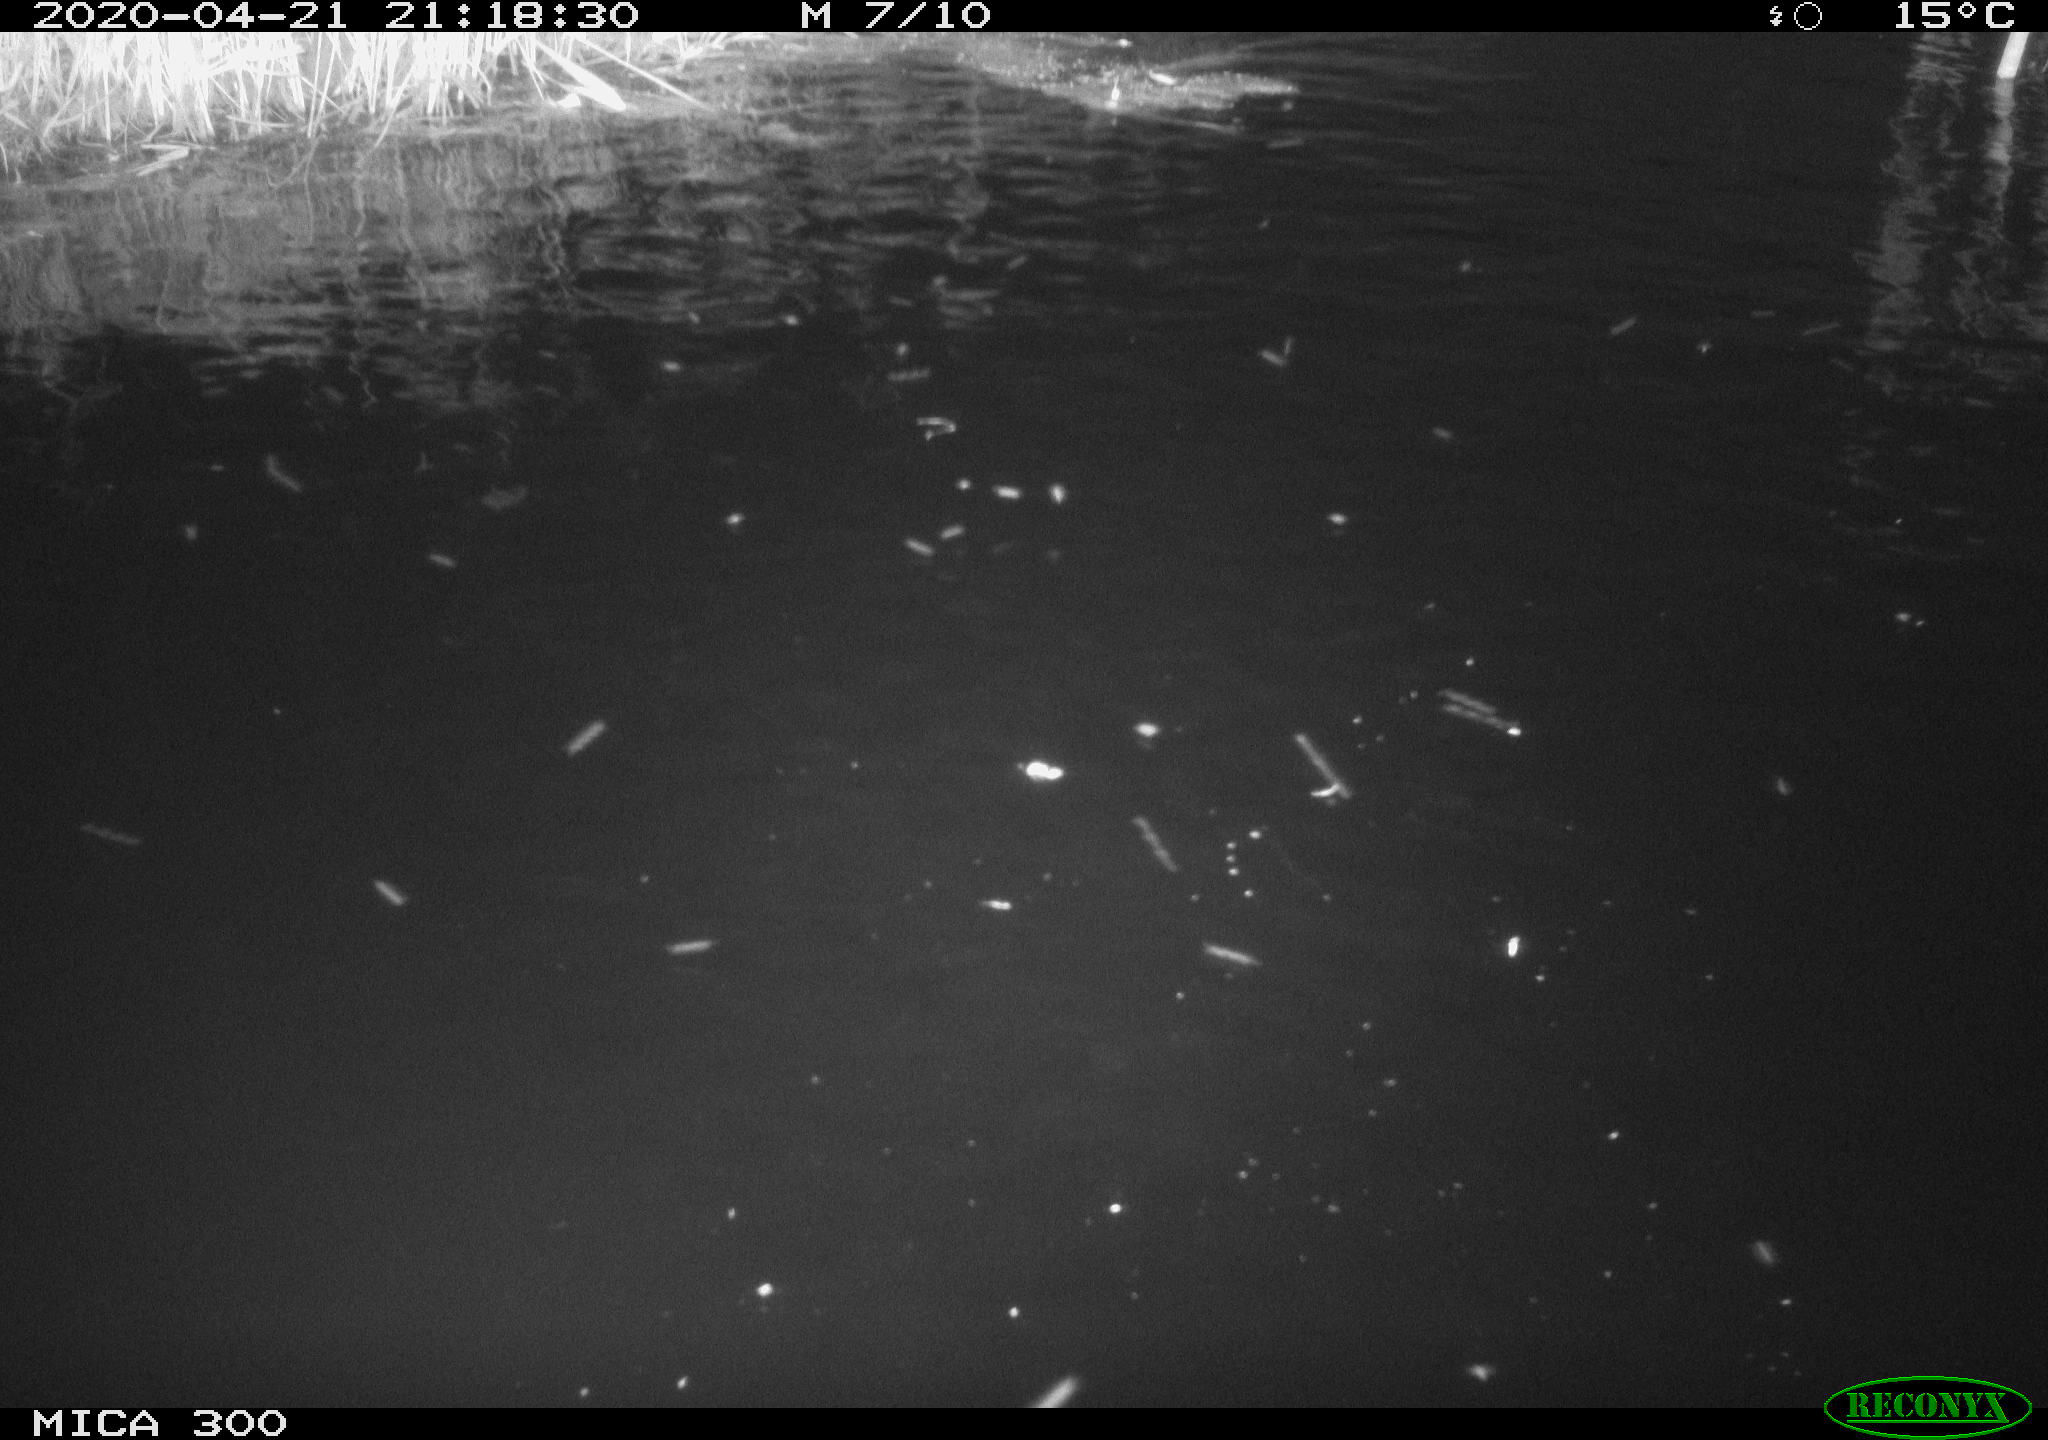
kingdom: Animalia
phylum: Chordata
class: Aves
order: Anseriformes
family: Anatidae
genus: Anas
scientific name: Anas platyrhynchos
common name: Mallard
